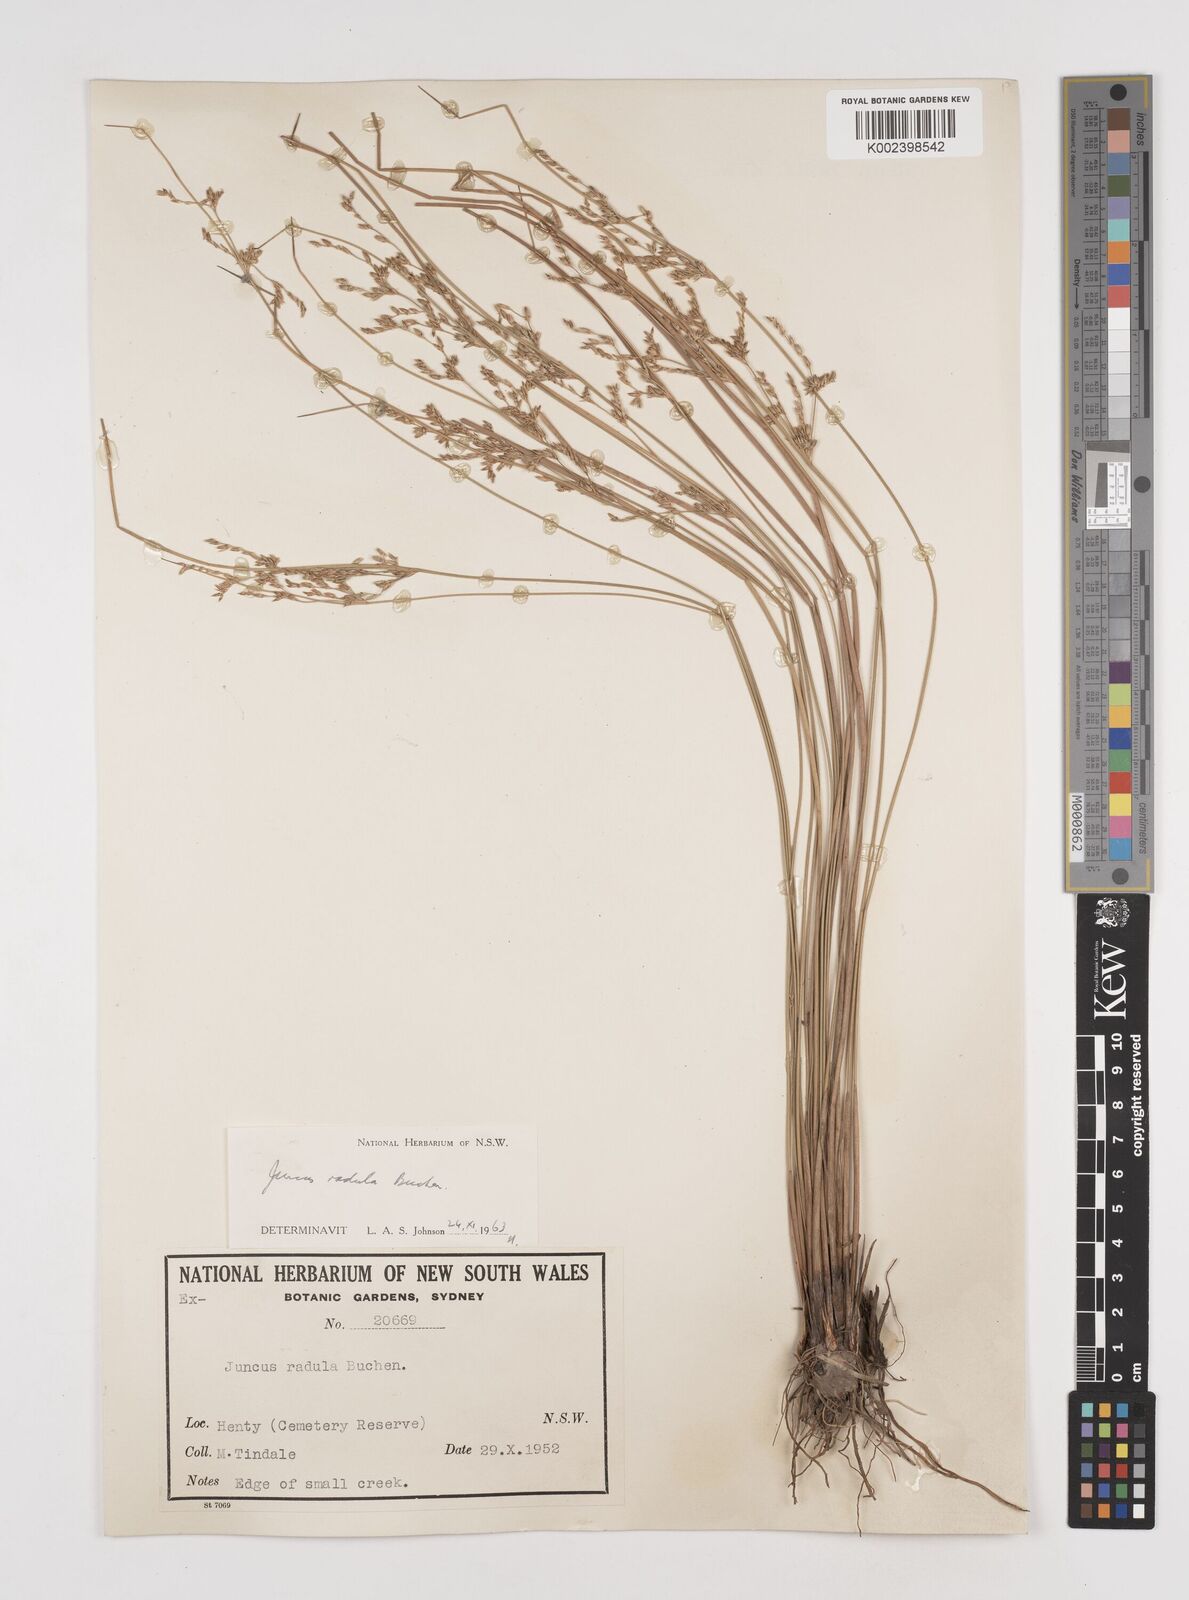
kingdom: Plantae
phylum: Tracheophyta
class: Liliopsida
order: Poales
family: Juncaceae
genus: Juncus
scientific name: Juncus radula
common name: Hoary rush
